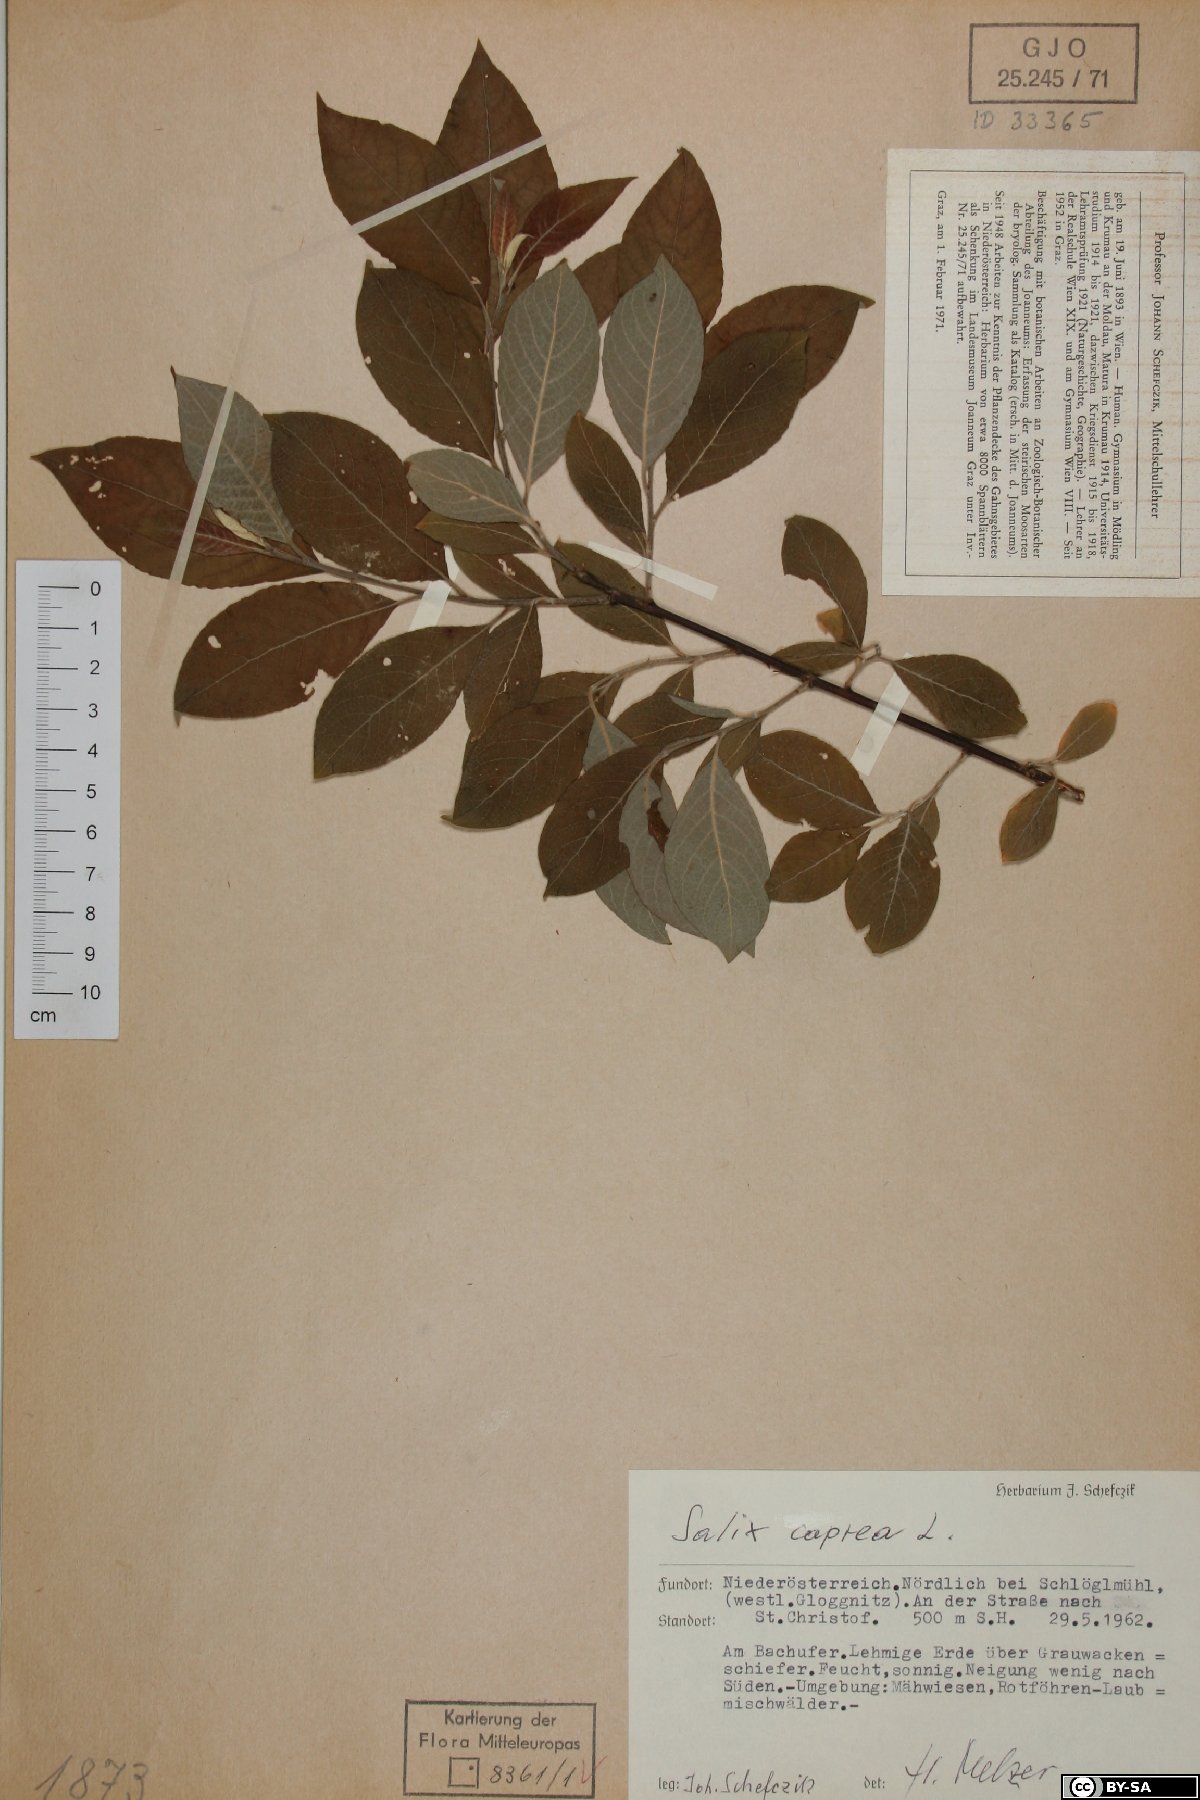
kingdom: Plantae
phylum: Tracheophyta
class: Magnoliopsida
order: Malpighiales
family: Salicaceae
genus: Salix
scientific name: Salix caprea
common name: Goat willow
